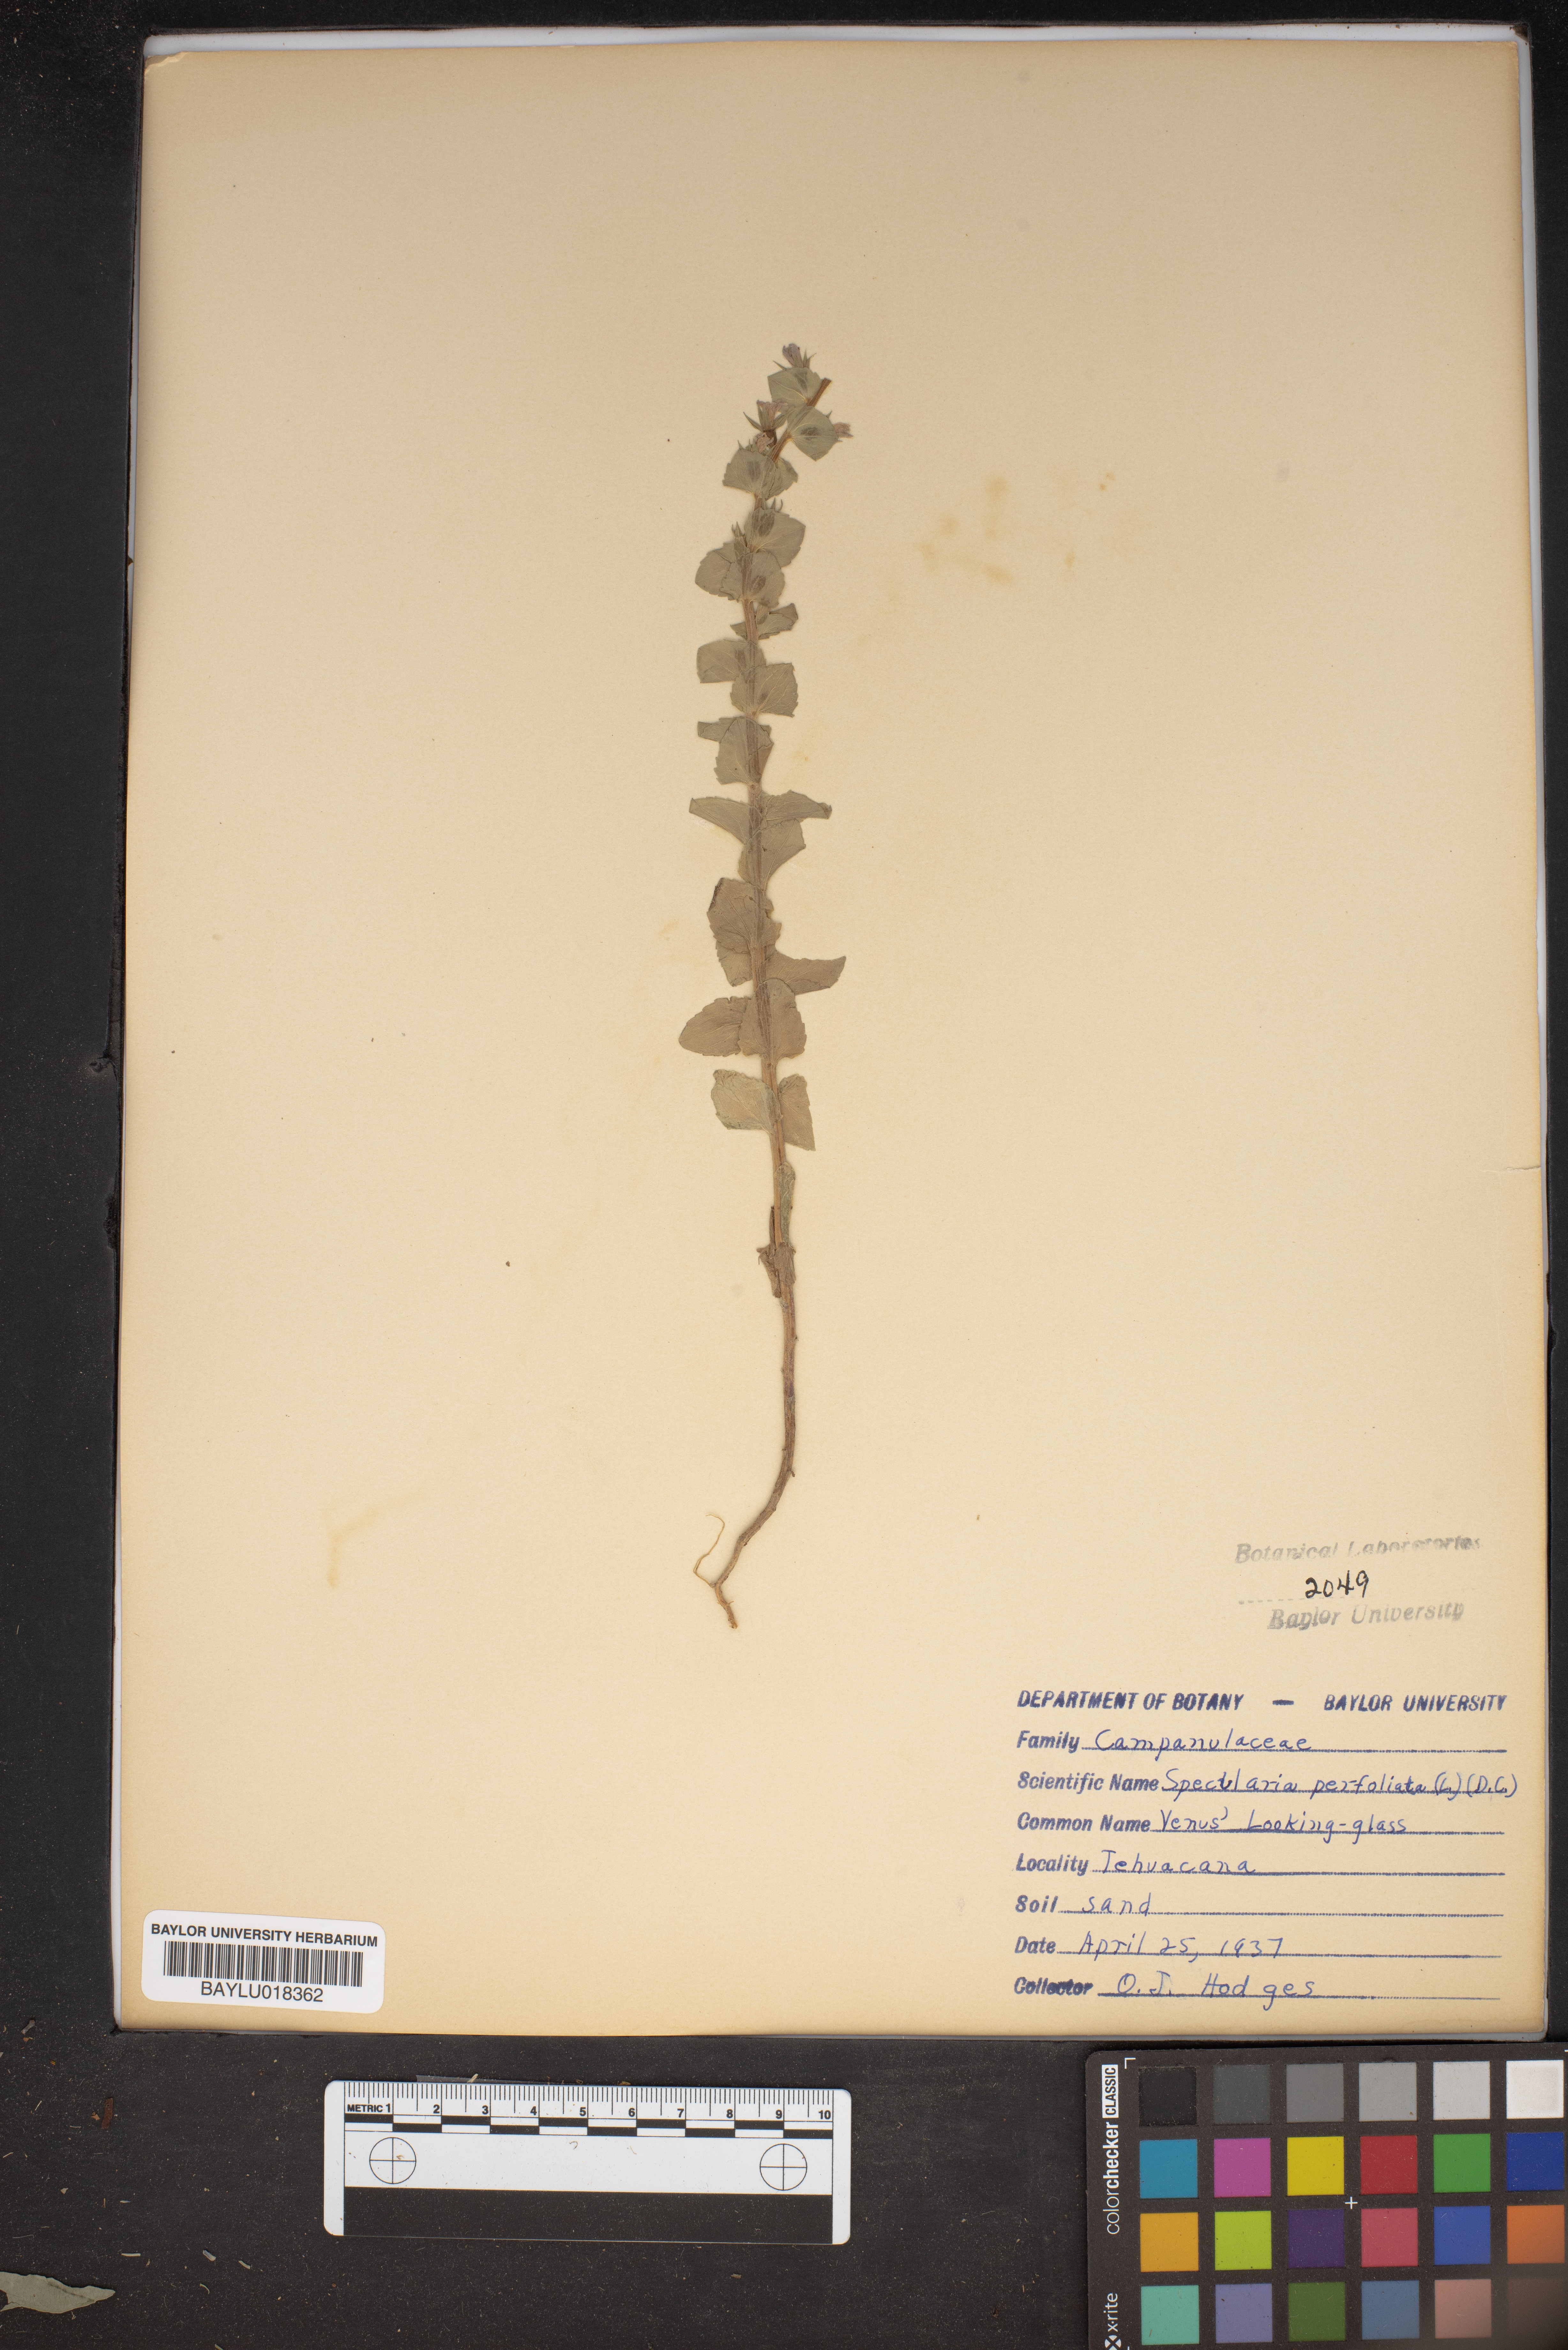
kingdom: Plantae
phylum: Tracheophyta
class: Magnoliopsida
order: Asterales
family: Campanulaceae
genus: Triodanis
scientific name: Triodanis perfoliata
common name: Clasping venus' looking-glass
